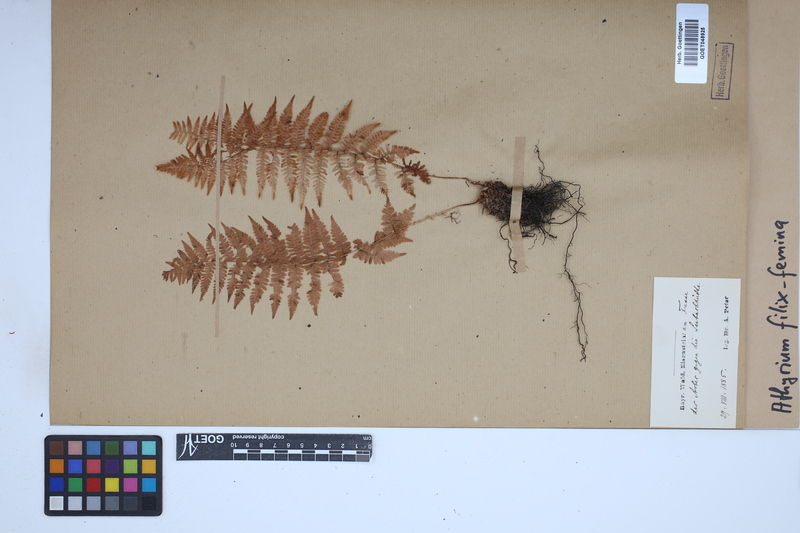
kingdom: Plantae
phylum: Tracheophyta
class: Polypodiopsida
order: Polypodiales
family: Athyriaceae
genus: Athyrium
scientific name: Athyrium filix-femina
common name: Lady fern
